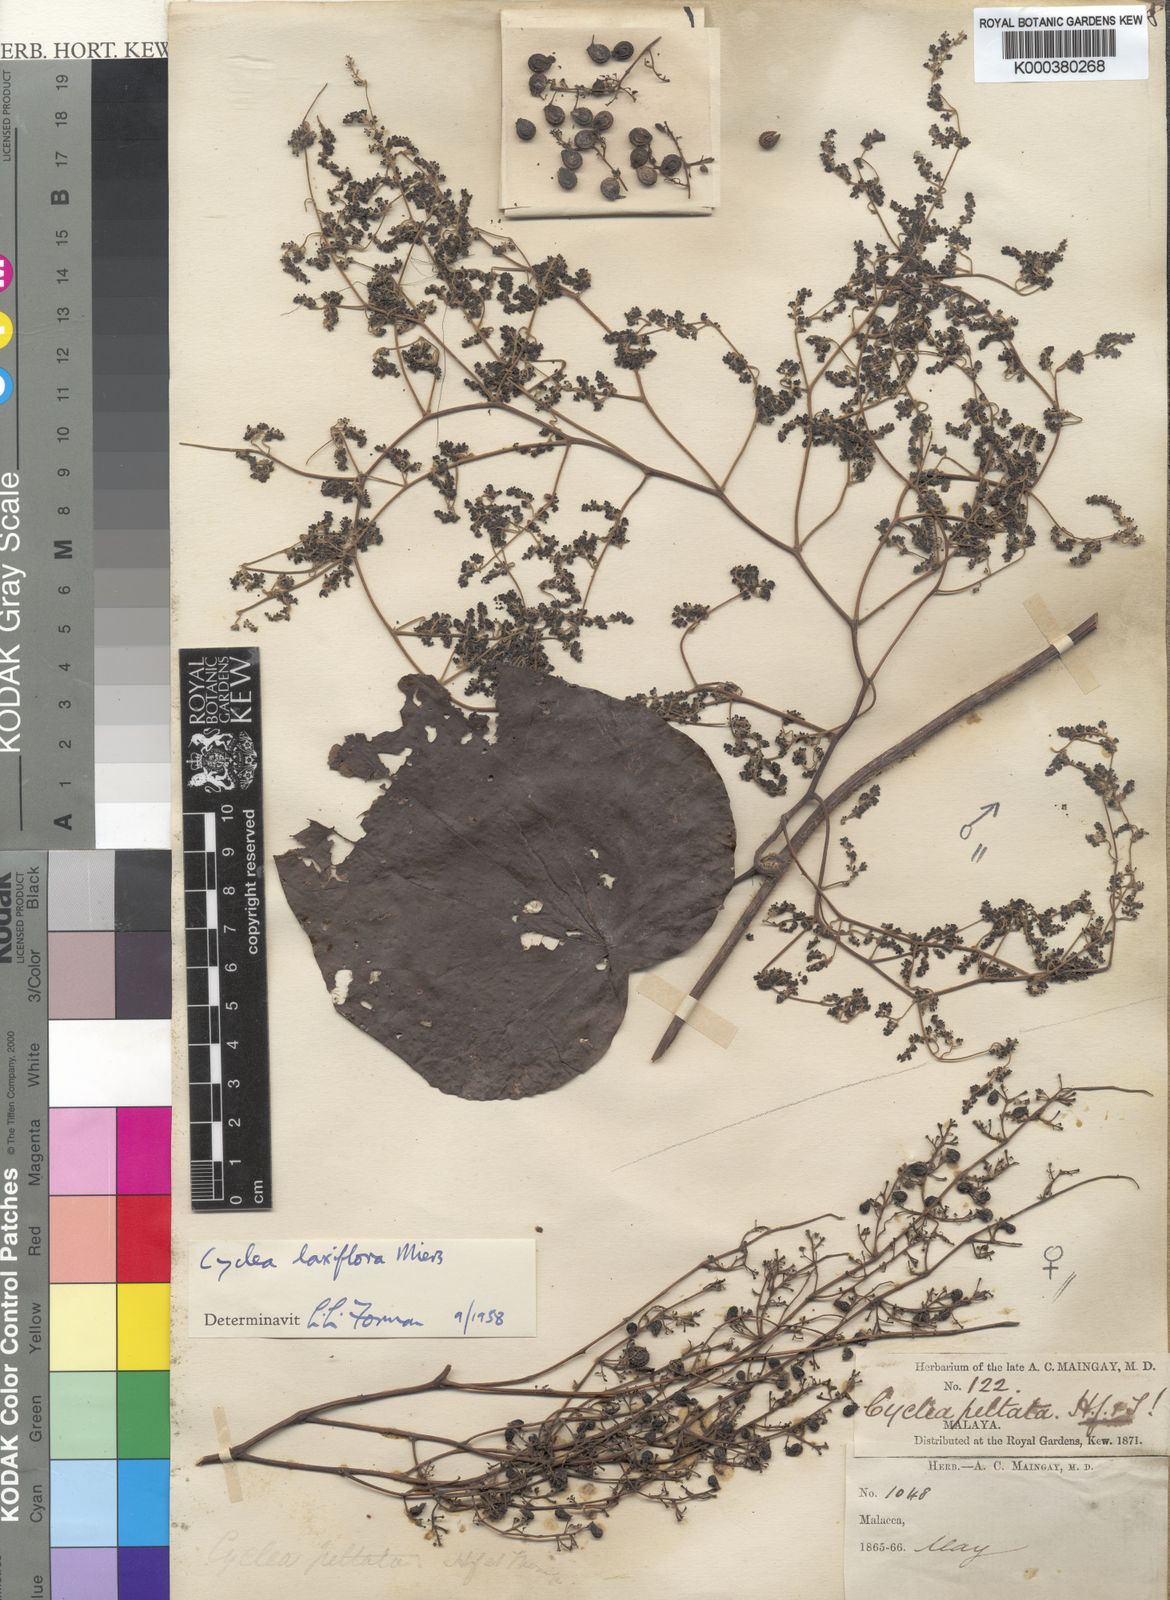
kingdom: Plantae
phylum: Tracheophyta
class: Magnoliopsida
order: Ranunculales
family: Menispermaceae
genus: Cyclea
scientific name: Cyclea laxiflora
